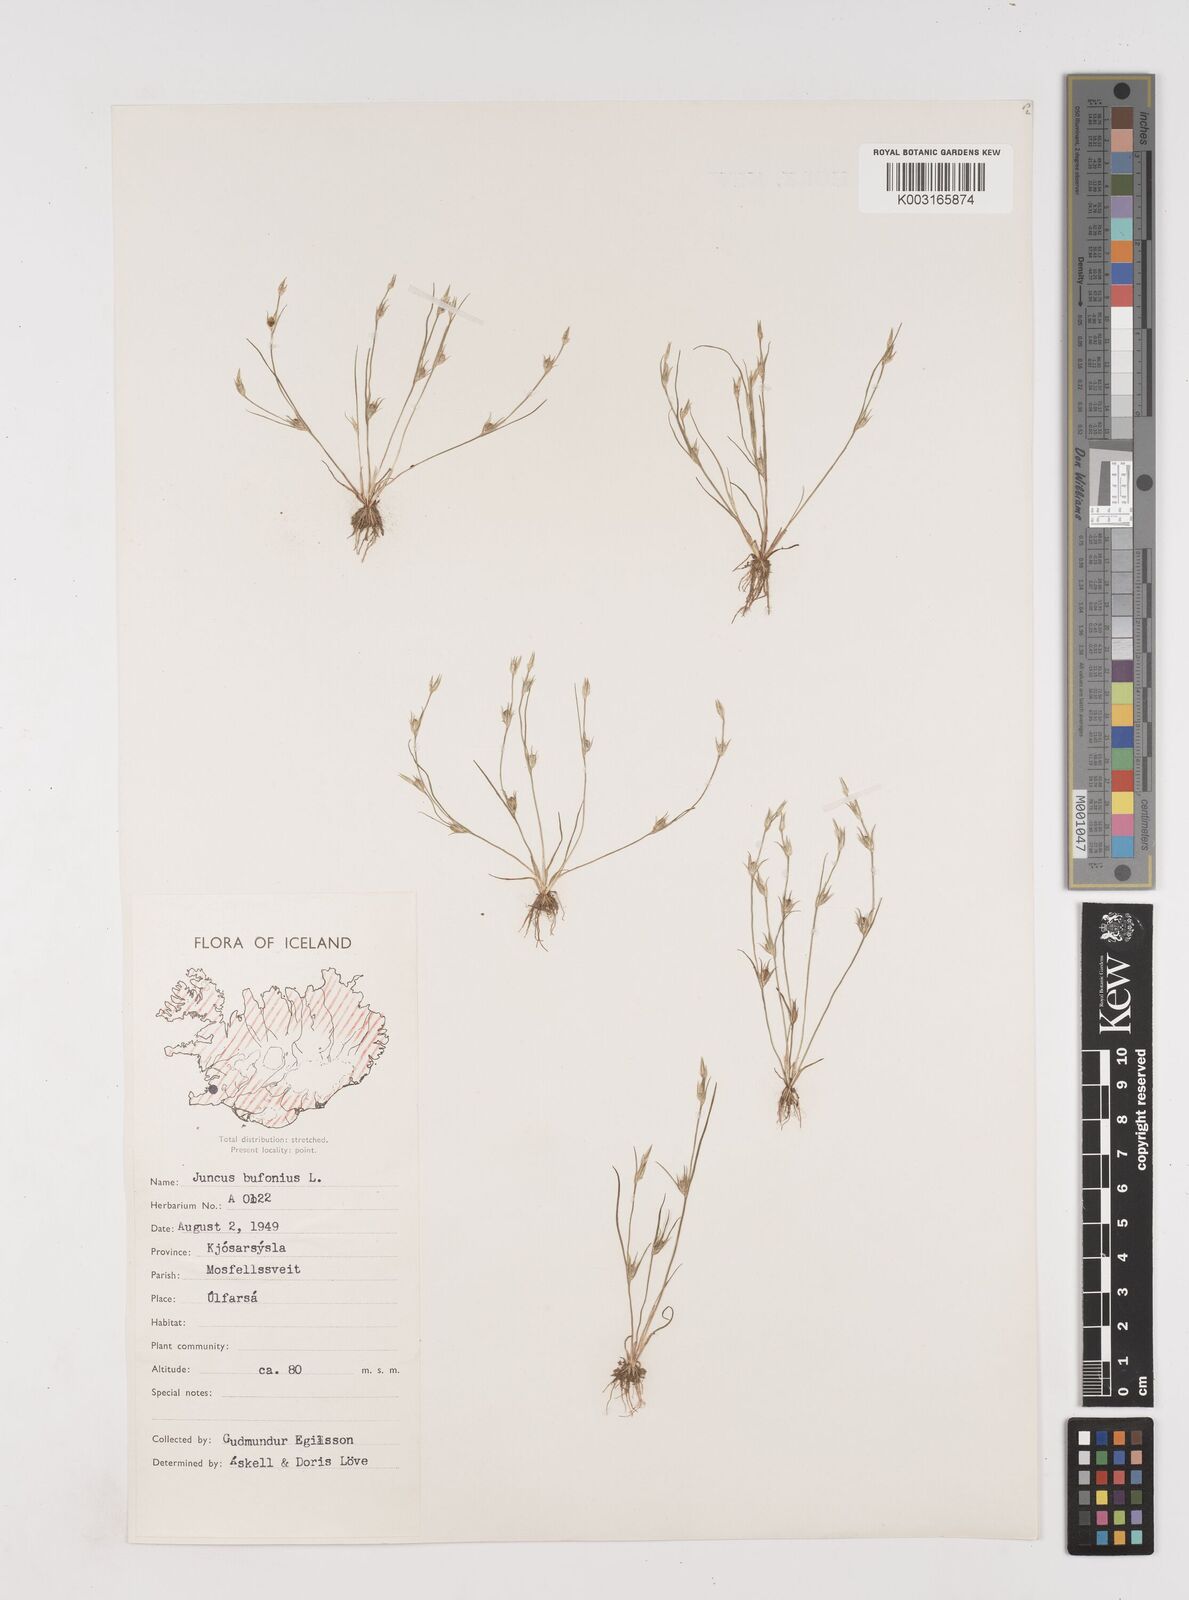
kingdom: Plantae
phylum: Tracheophyta
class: Liliopsida
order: Poales
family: Juncaceae
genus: Juncus
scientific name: Juncus bufonius
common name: Toad rush
